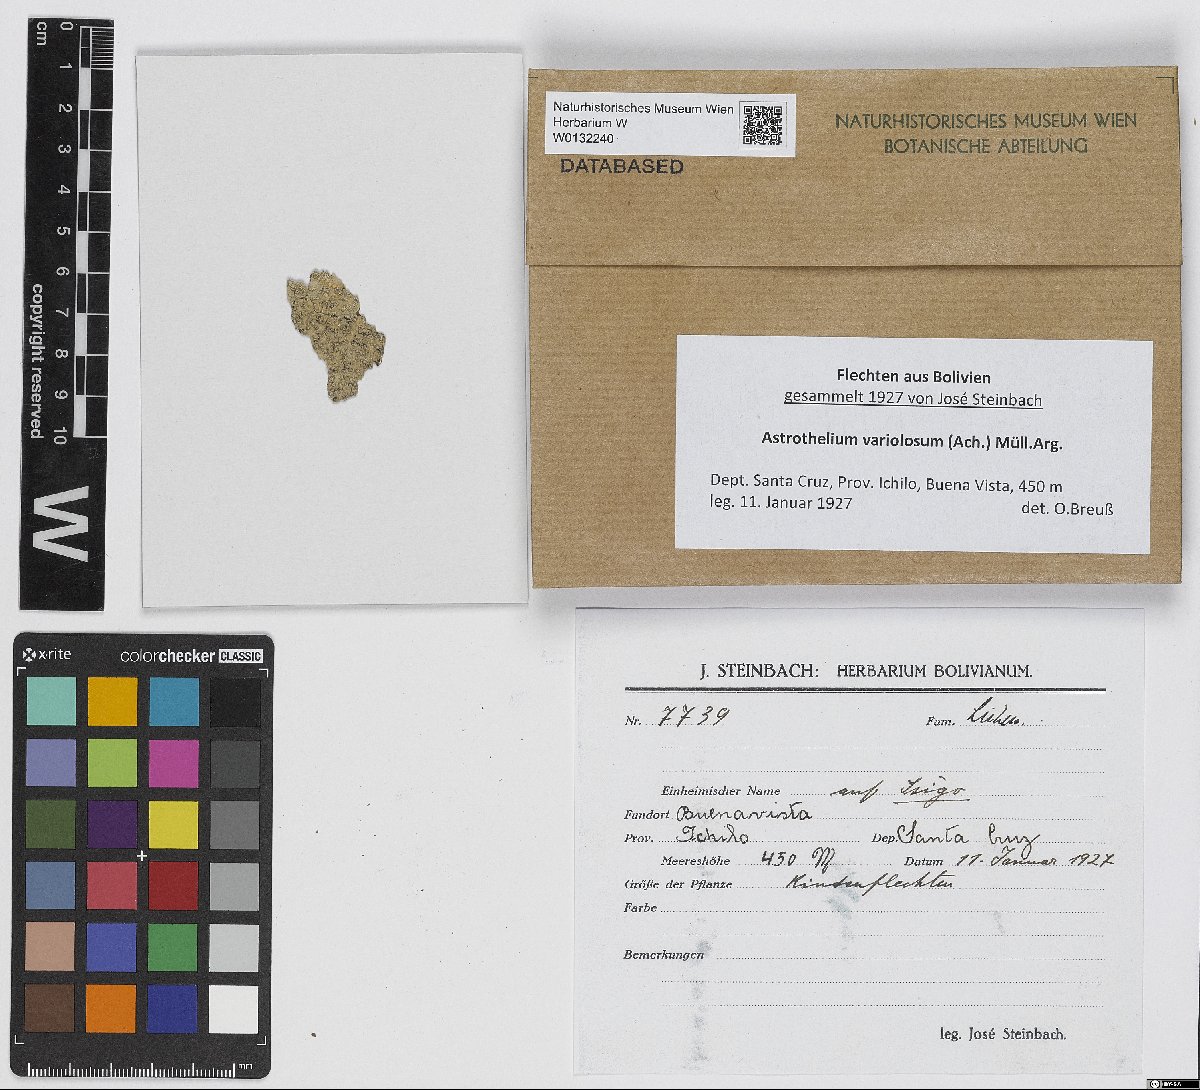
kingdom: Fungi
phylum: Ascomycota
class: Dothideomycetes
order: Trypetheliales
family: Trypetheliaceae
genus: Trypethelium
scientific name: Trypethelium variolosum
